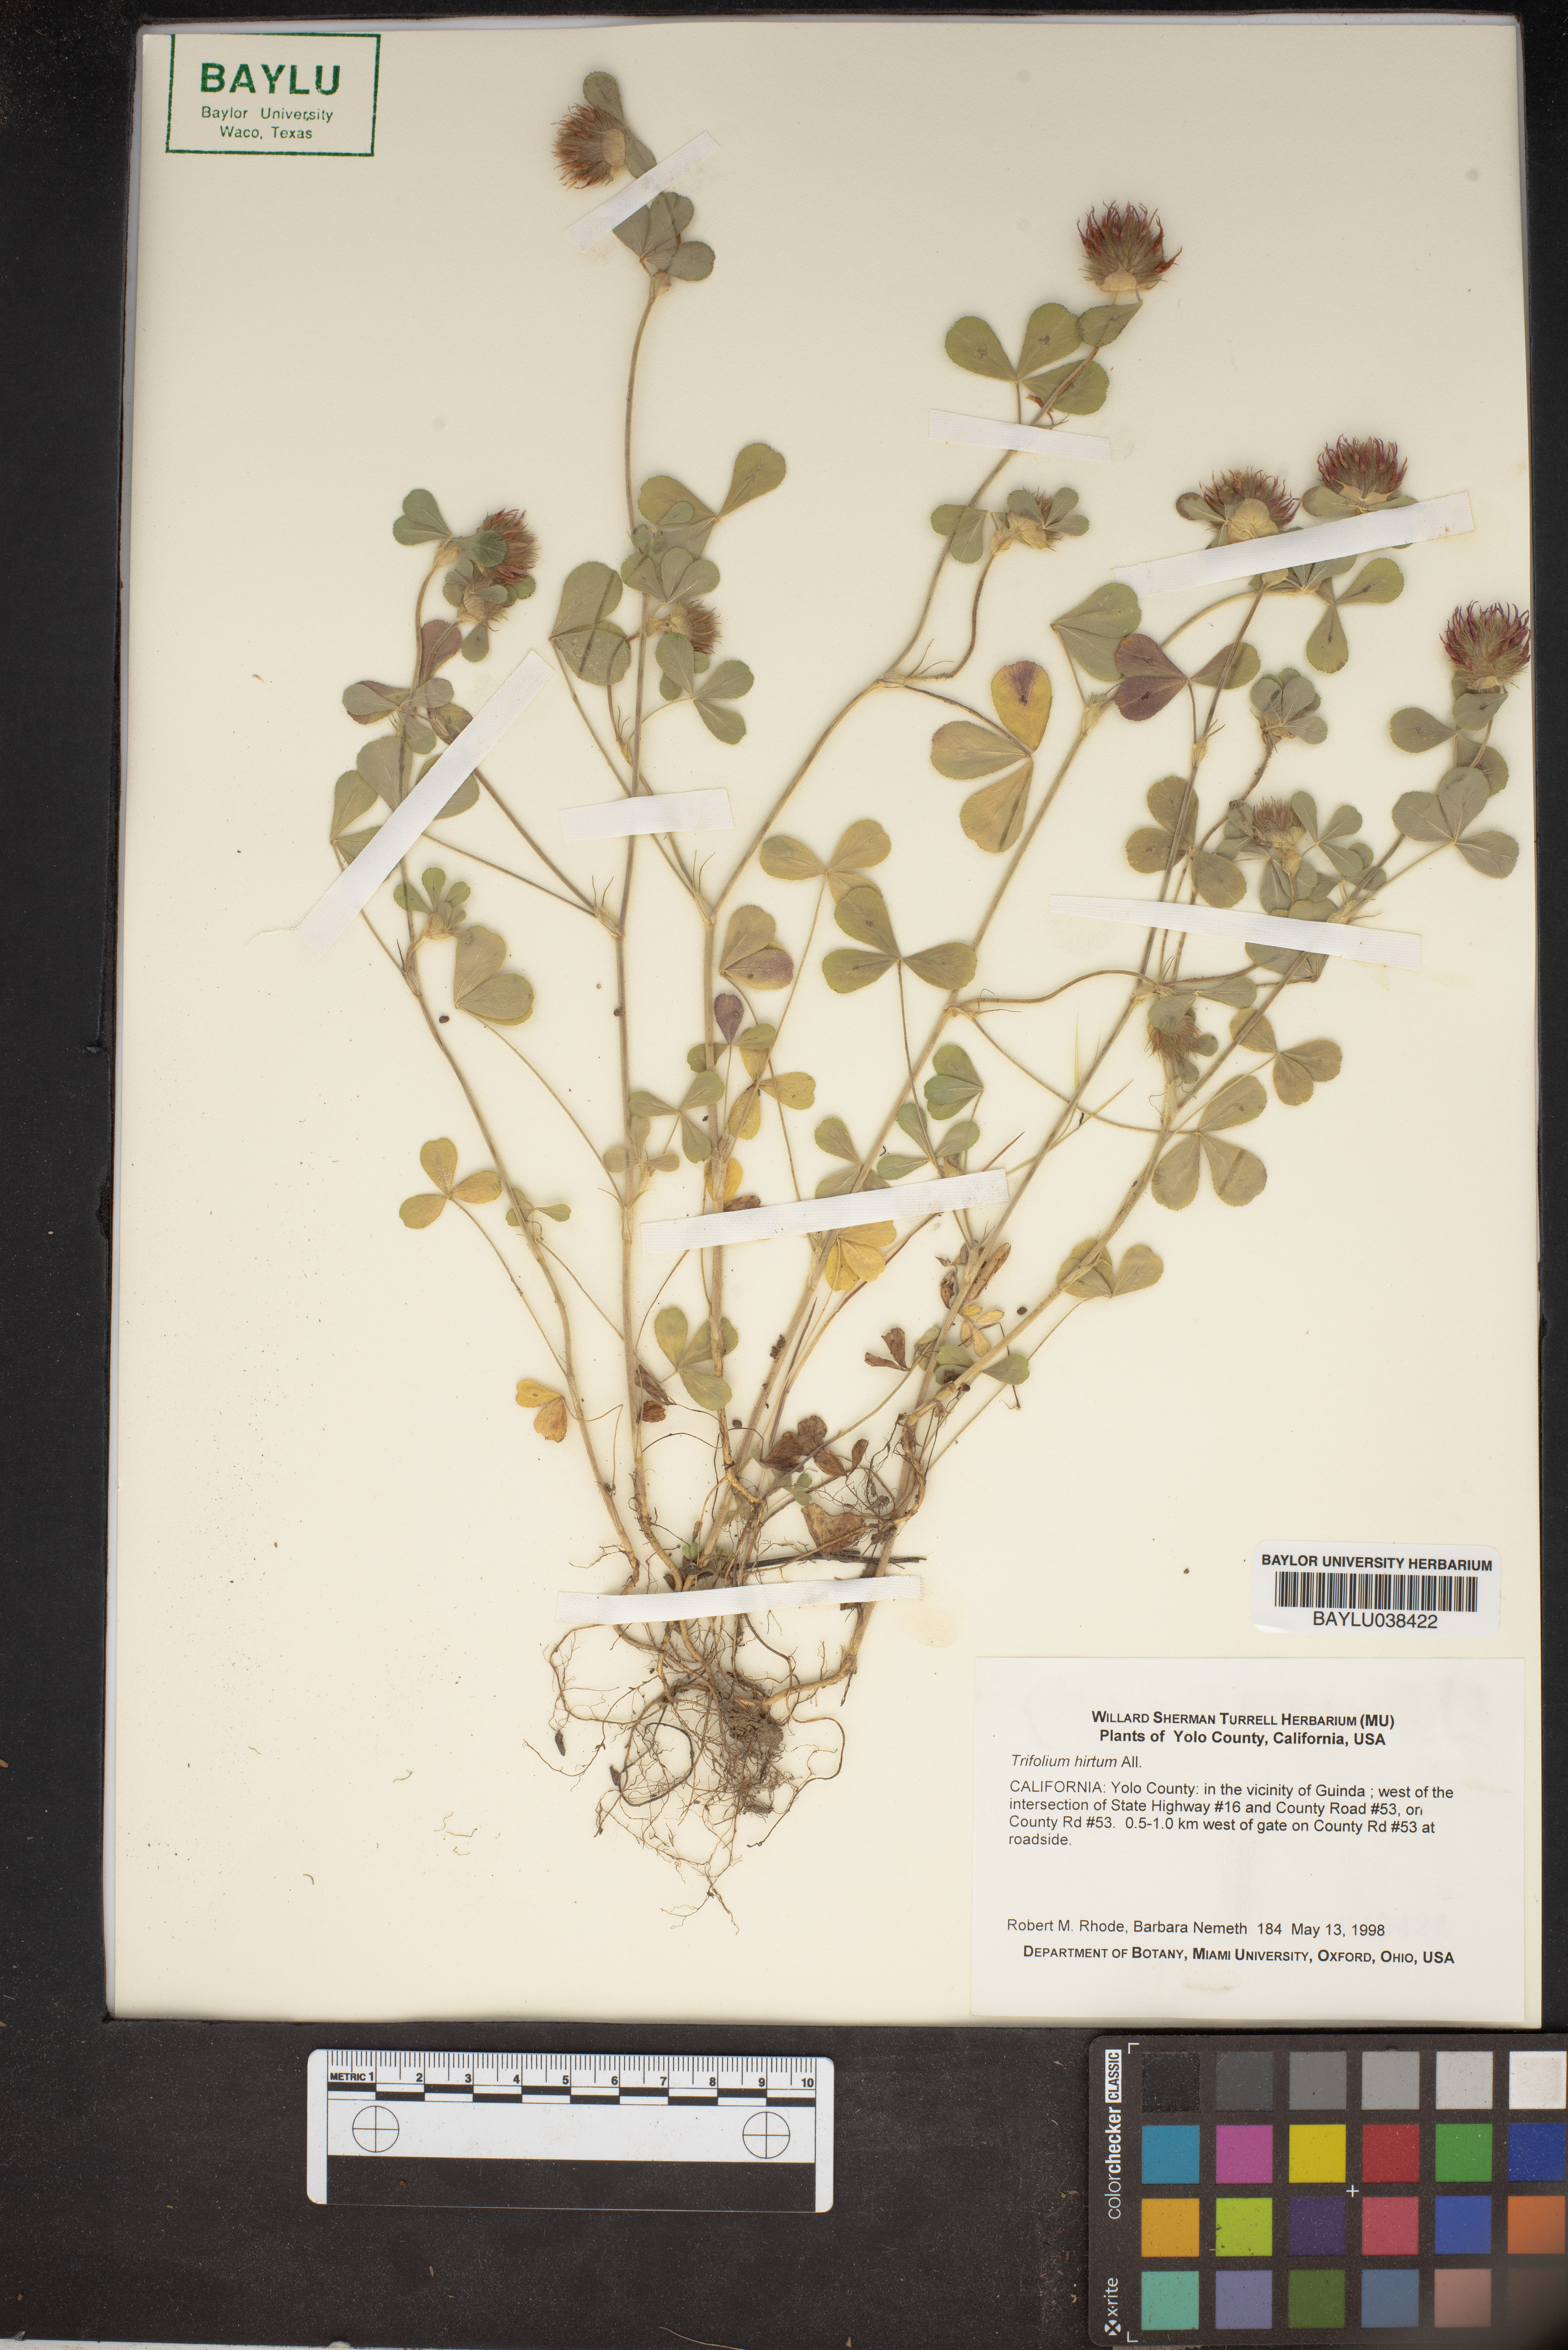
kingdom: Plantae
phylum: Tracheophyta
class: Magnoliopsida
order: Fabales
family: Fabaceae
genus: Trifolium
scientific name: Trifolium hirtum
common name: Rose clover
